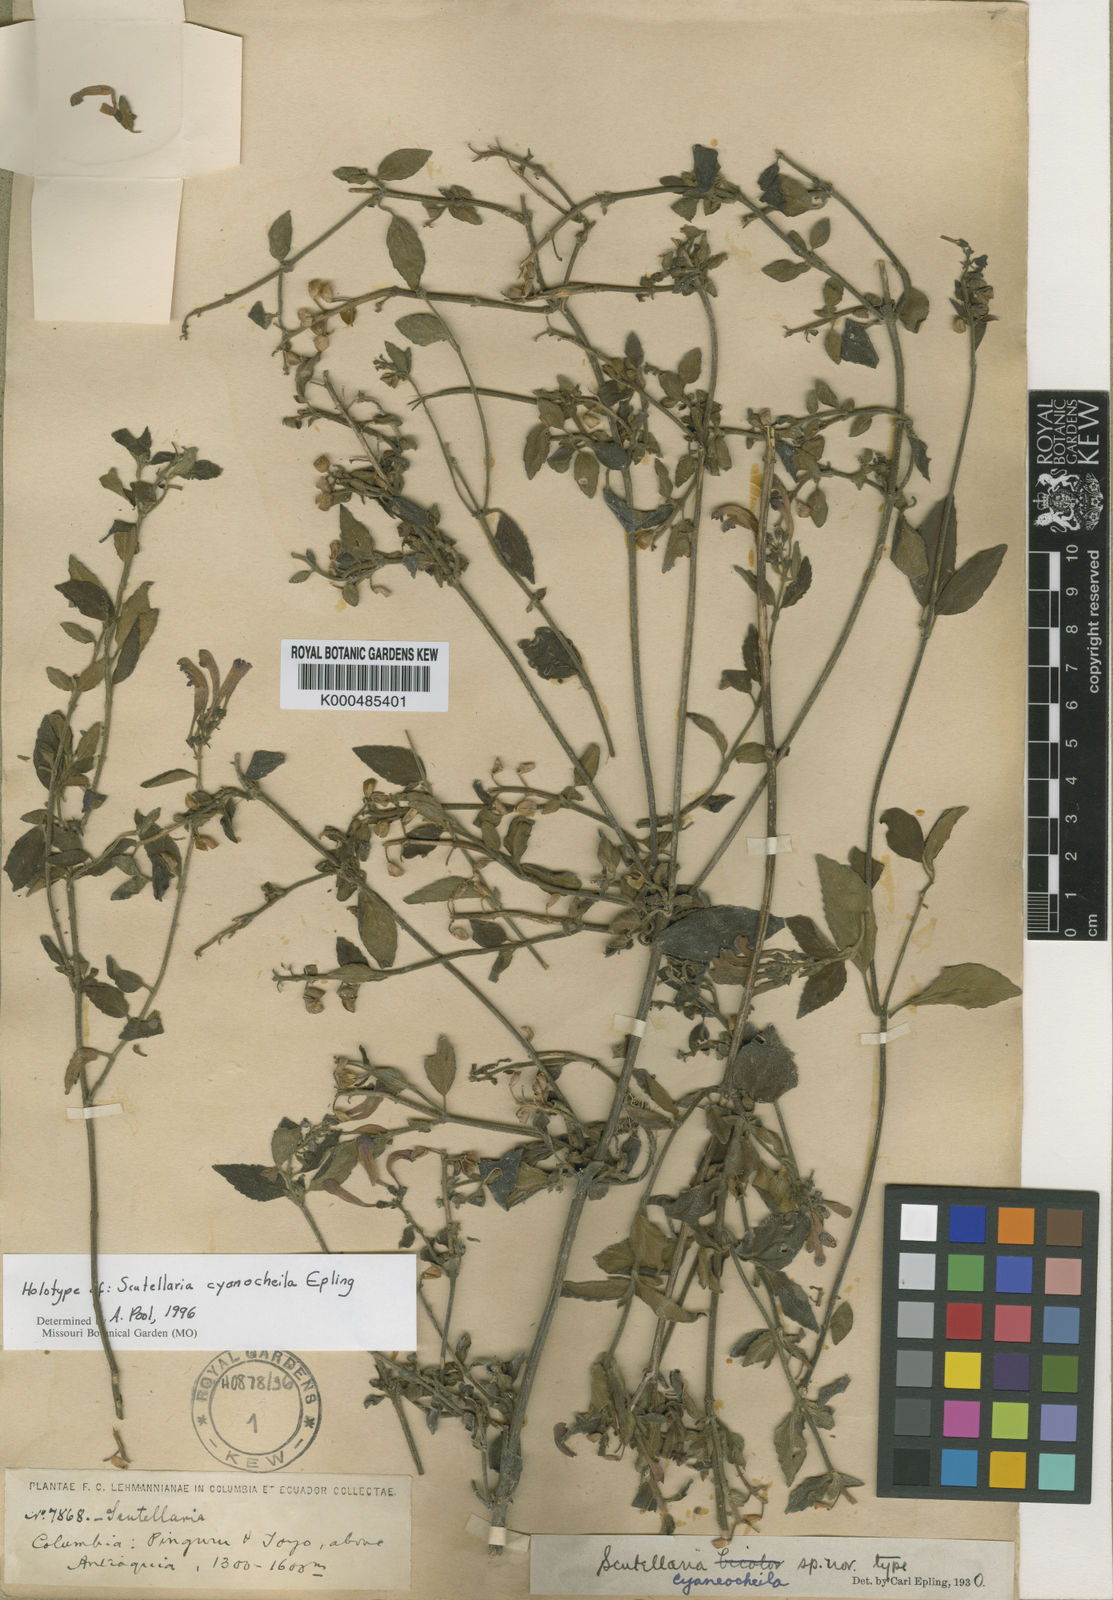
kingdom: Plantae
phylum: Tracheophyta
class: Magnoliopsida
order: Lamiales
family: Lamiaceae
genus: Scutellaria
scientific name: Scutellaria cyanocheila
